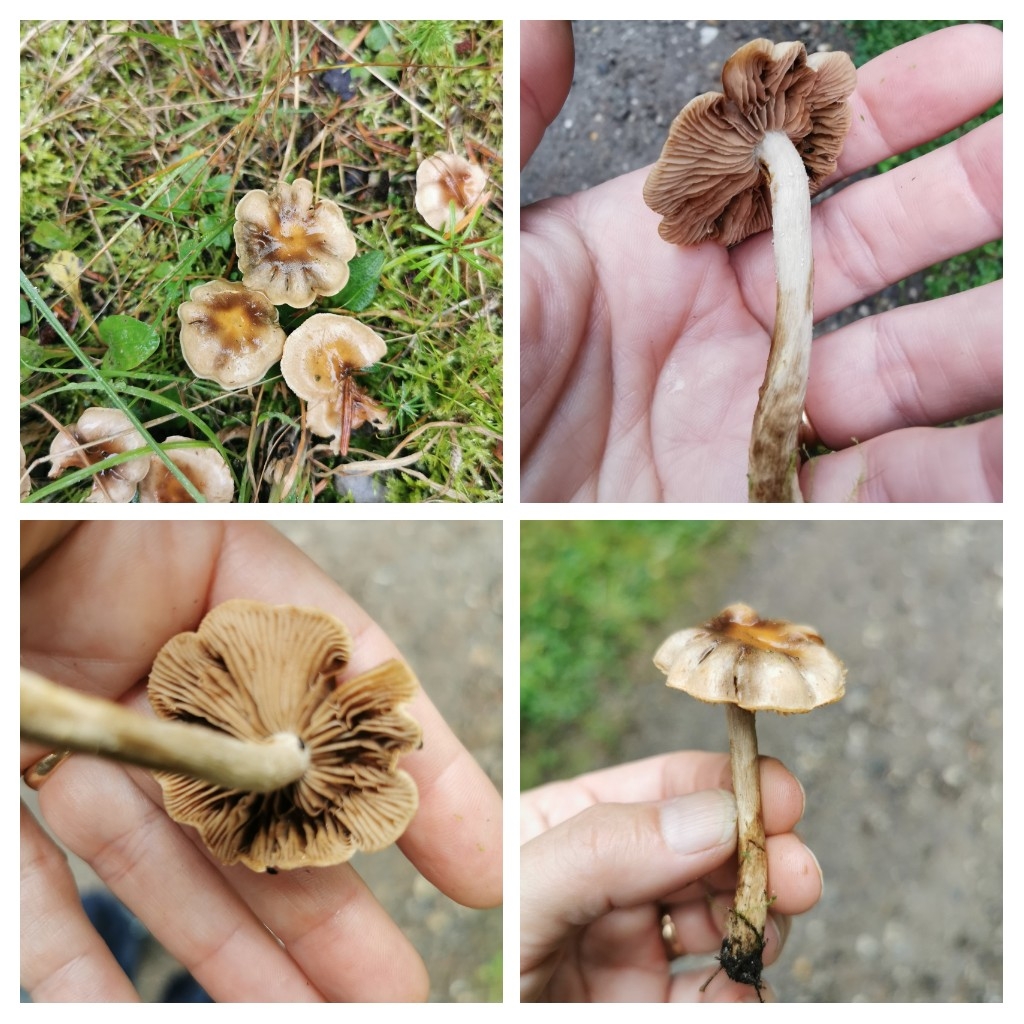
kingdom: Fungi
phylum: Basidiomycota
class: Agaricomycetes
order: Agaricales
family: Hymenogastraceae
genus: Hebeloma
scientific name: Hebeloma mesophaeum
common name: lerbrun tåreblad
